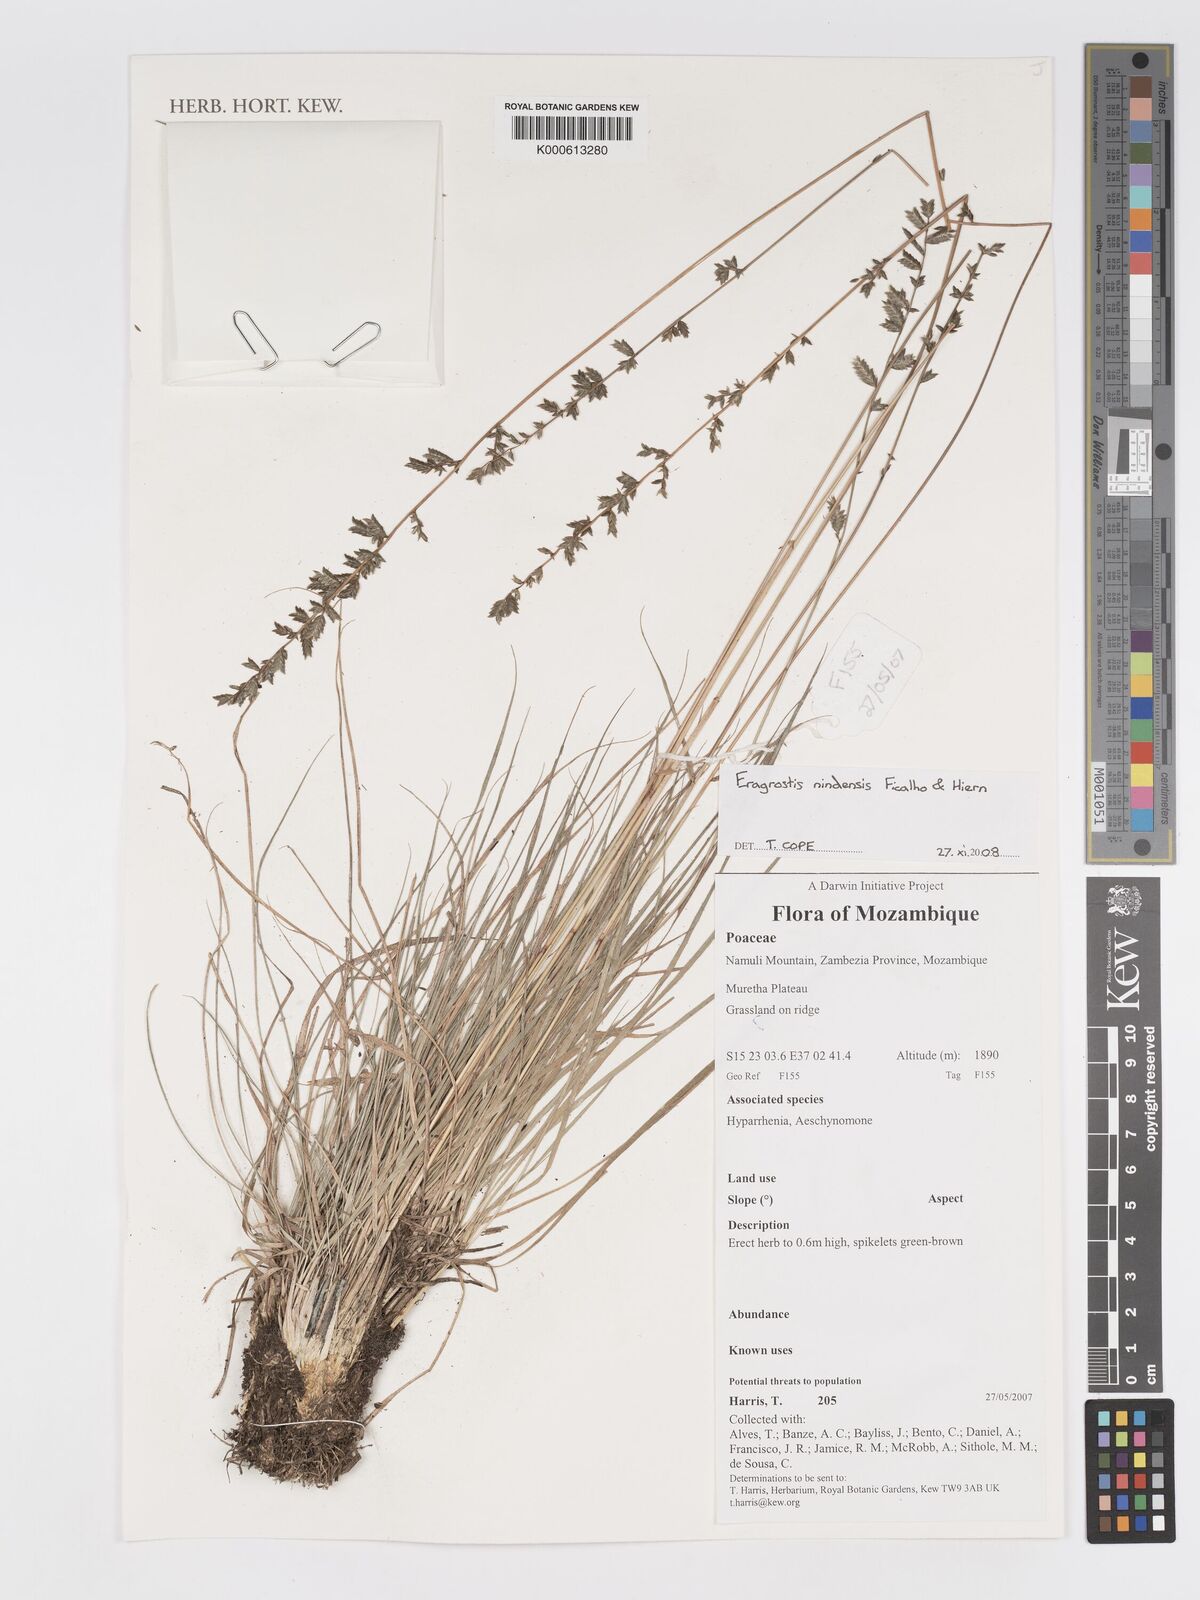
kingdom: Plantae
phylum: Tracheophyta
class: Liliopsida
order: Poales
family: Poaceae
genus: Eragrostis
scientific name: Eragrostis nindensis
